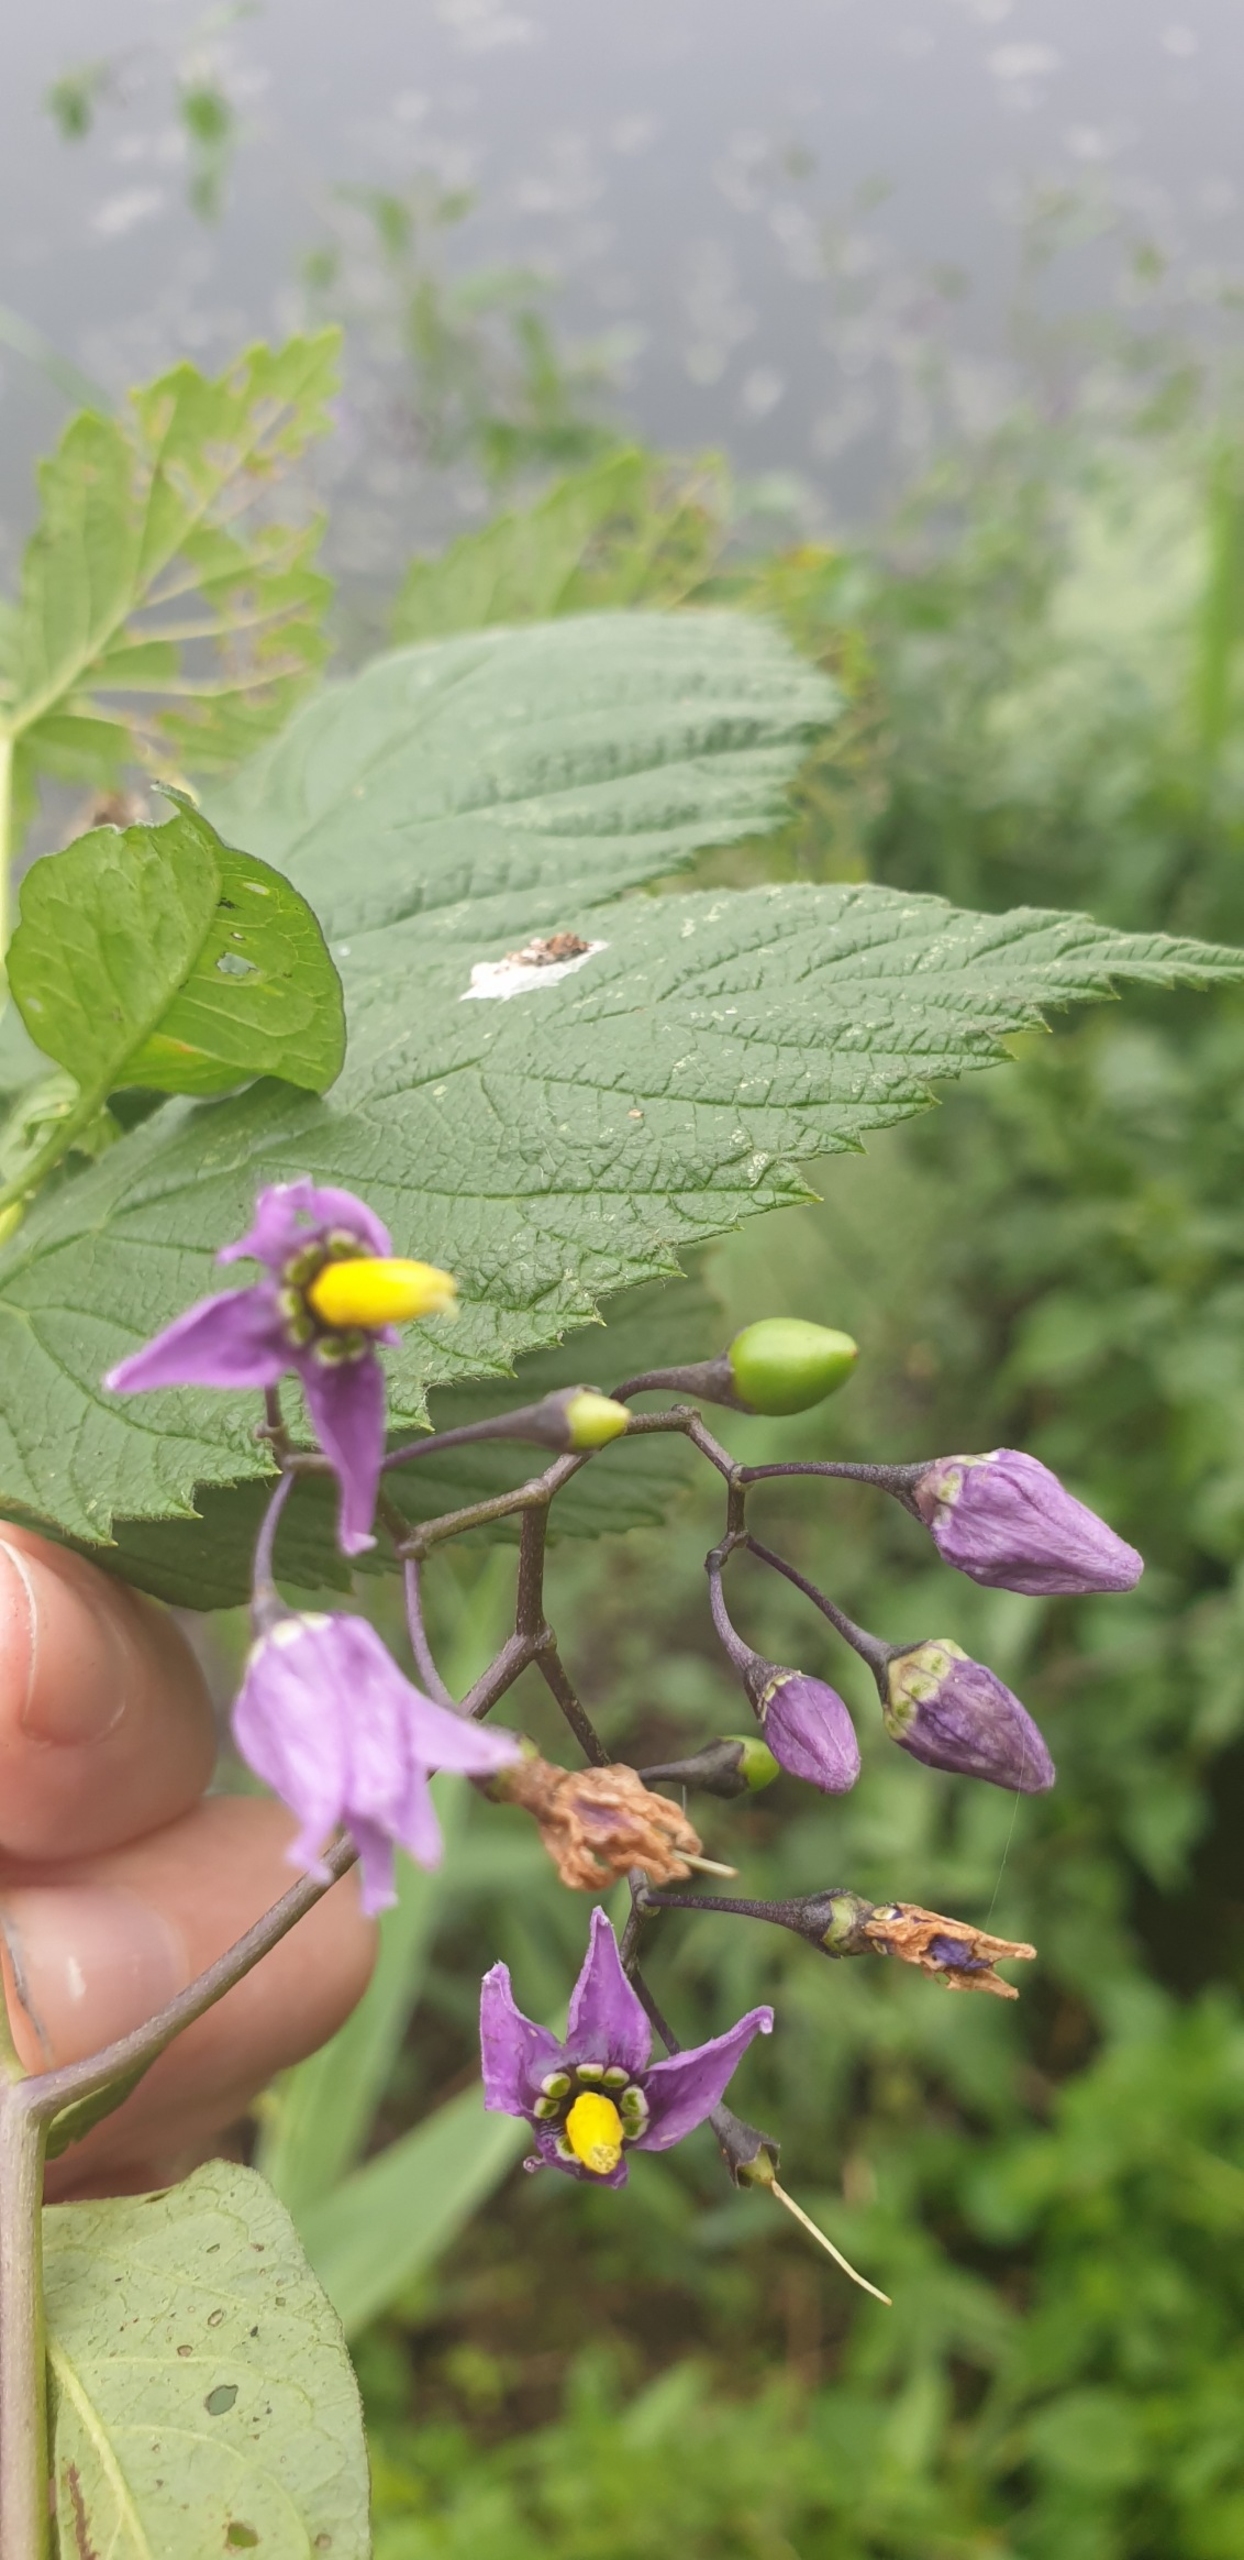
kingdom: Plantae
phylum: Tracheophyta
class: Magnoliopsida
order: Solanales
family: Solanaceae
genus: Solanum
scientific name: Solanum dulcamara
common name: Bittersød natskygge
